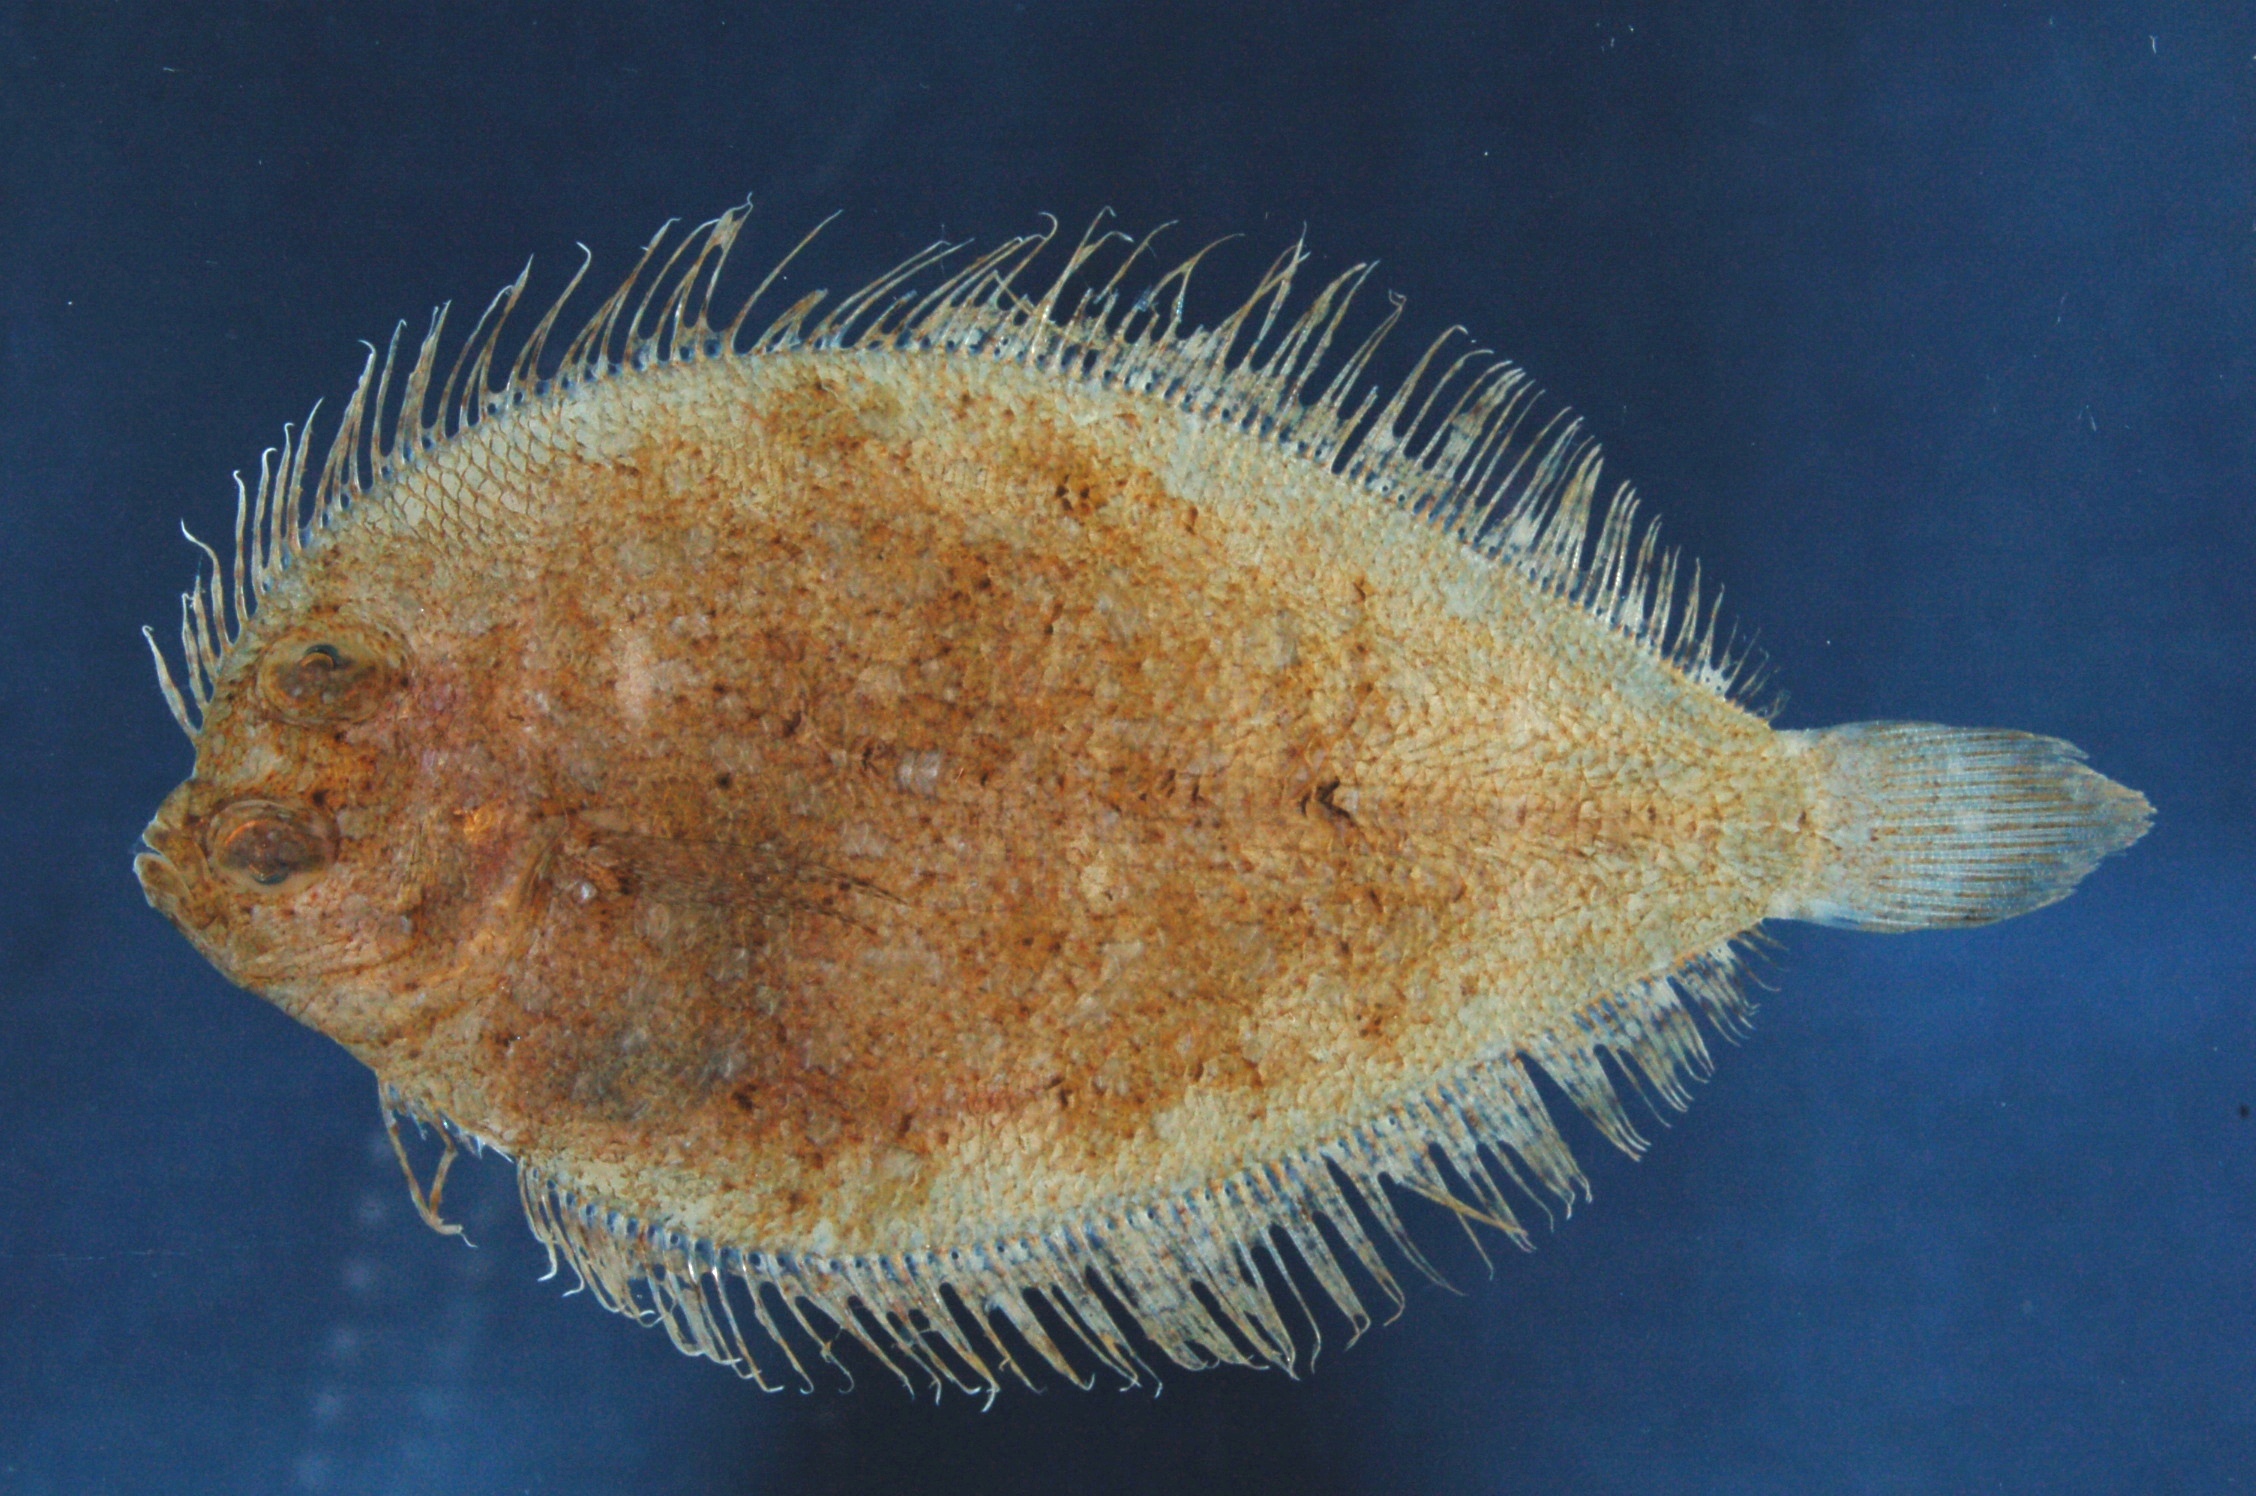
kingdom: Animalia
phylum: Chordata
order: Pleuronectiformes
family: Paralichthyidae
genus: Pseudorhombus
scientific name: Pseudorhombus elevatus
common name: Deep flounder
